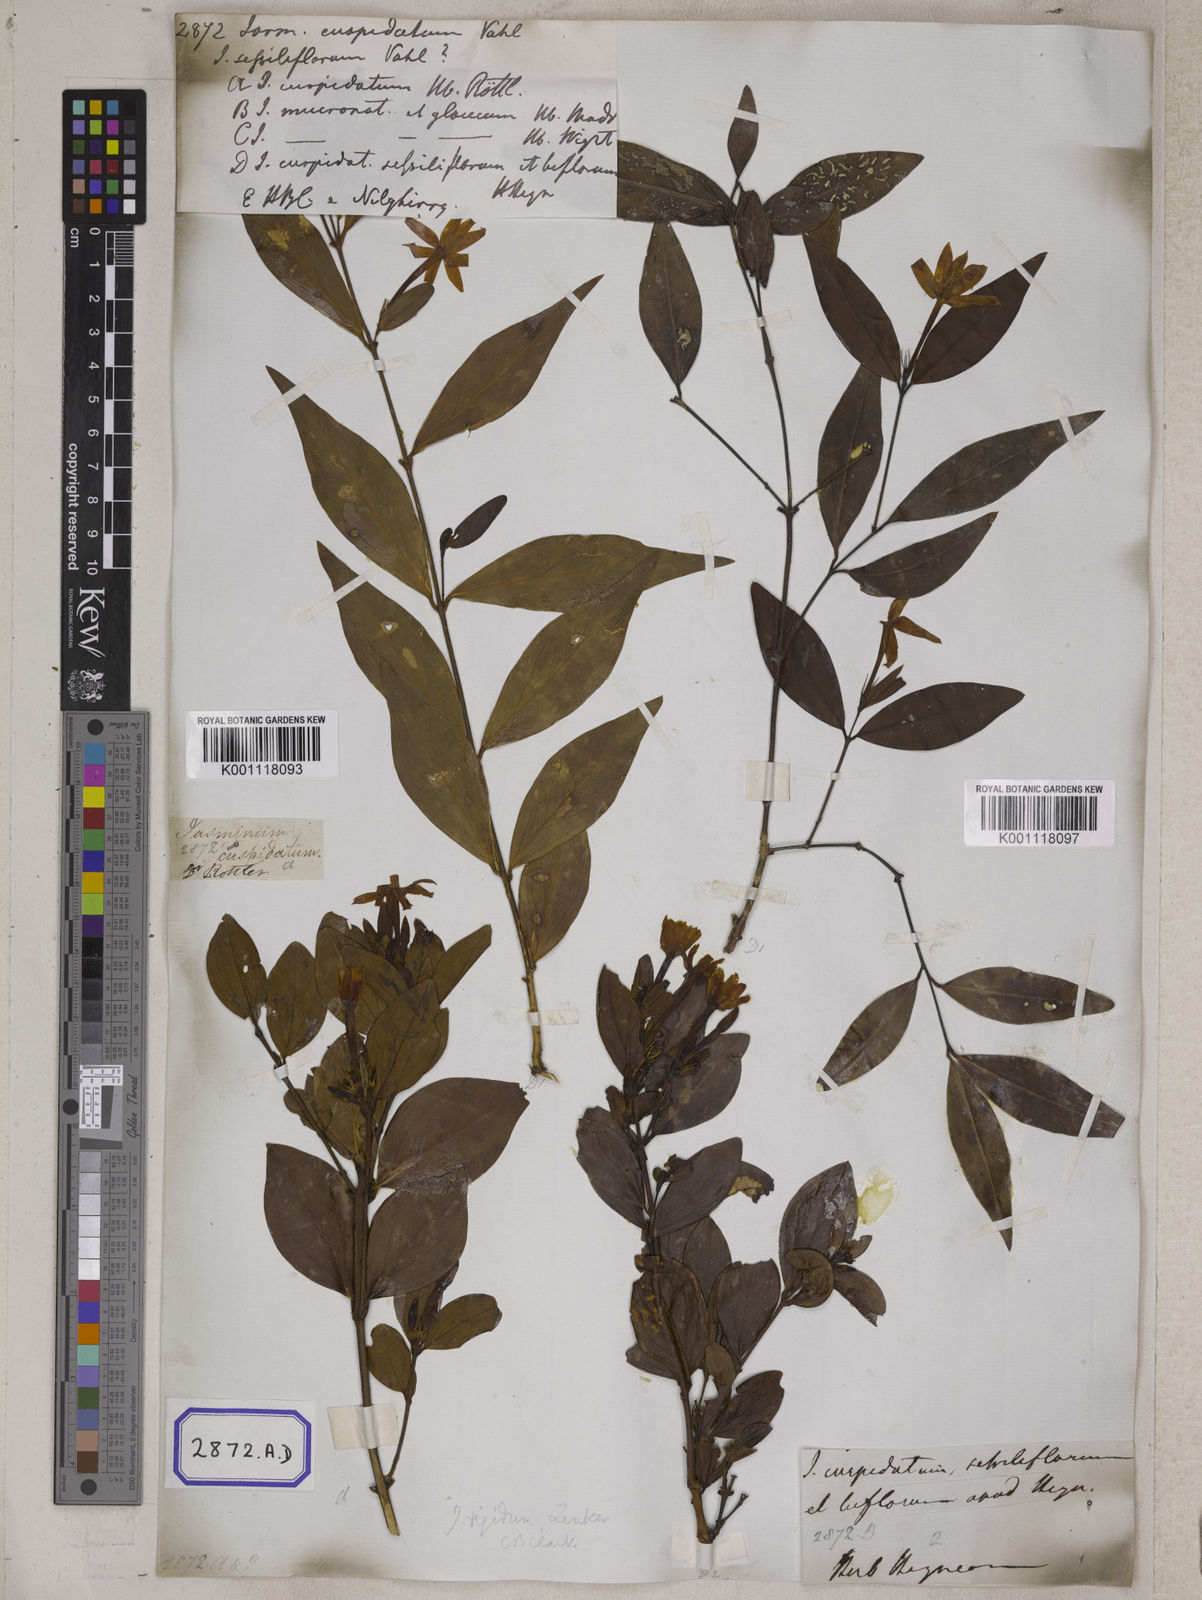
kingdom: Plantae
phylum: Tracheophyta
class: Magnoliopsida
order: Lamiales
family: Oleaceae
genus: Jasminum
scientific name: Jasminum
